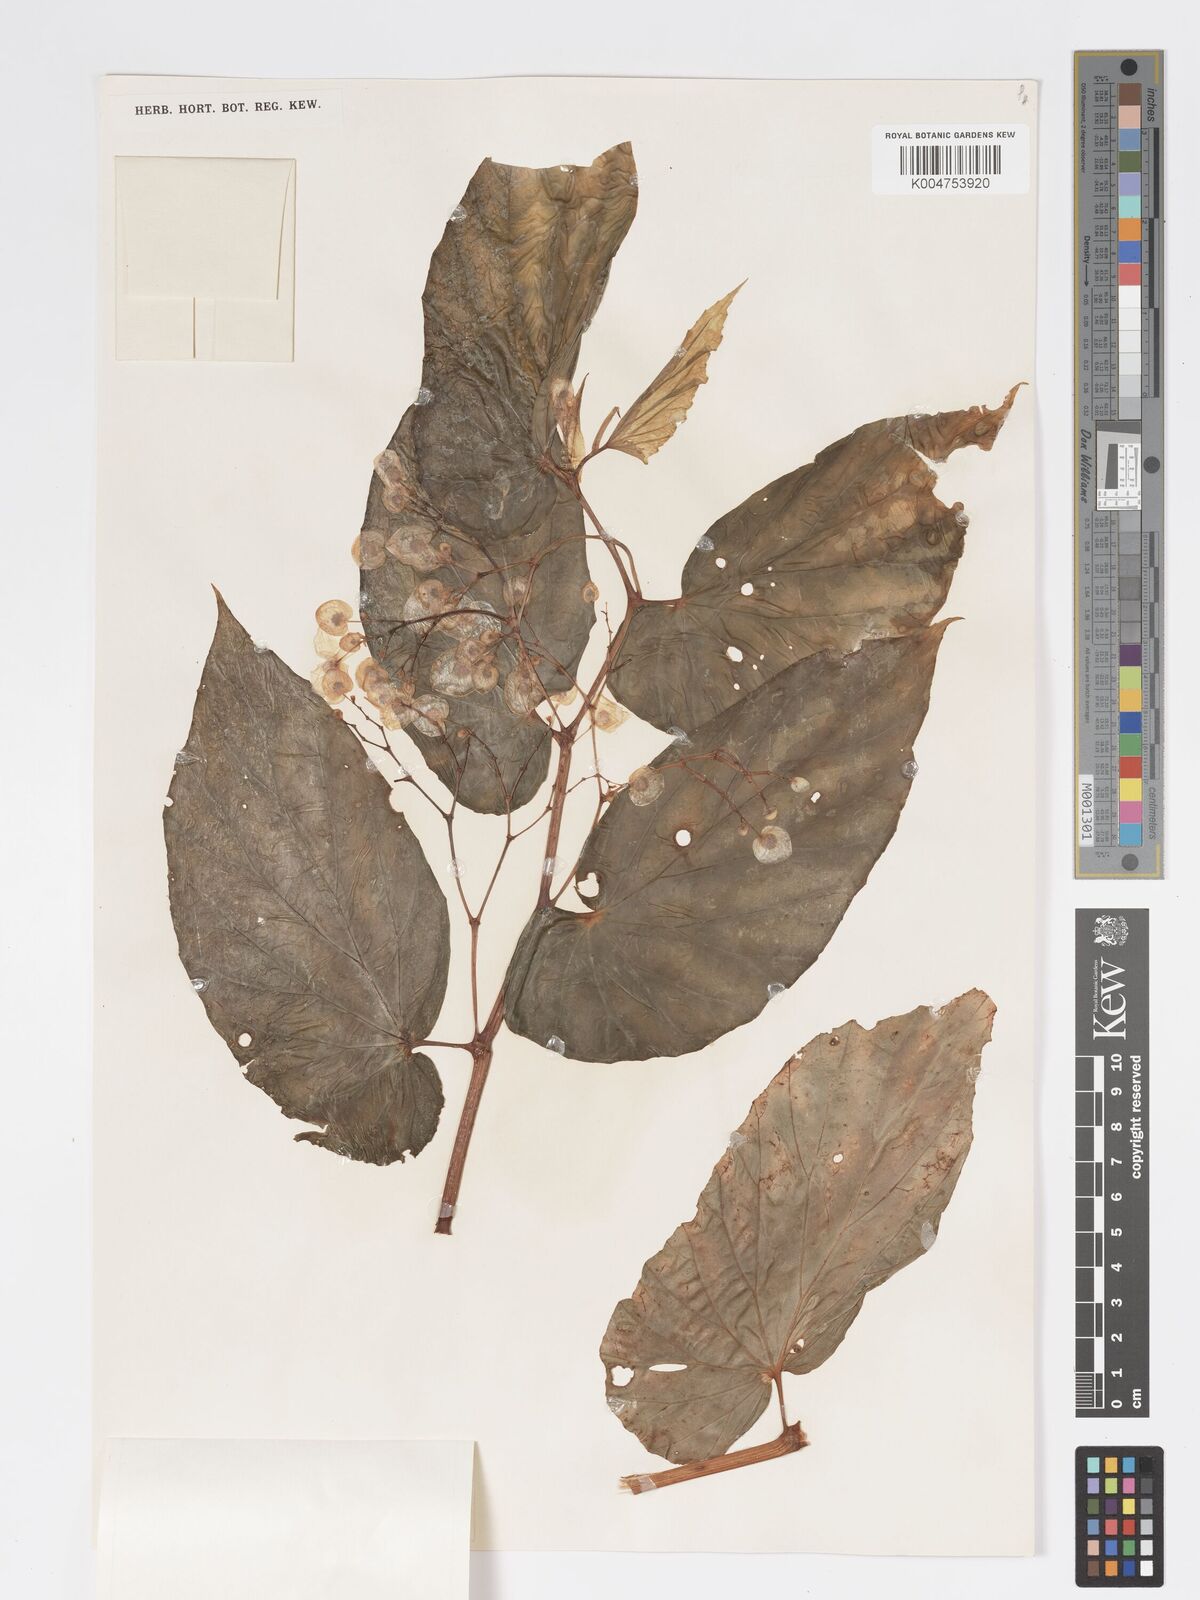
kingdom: Plantae
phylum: Tracheophyta
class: Magnoliopsida
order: Cucurbitales
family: Begoniaceae
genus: Begonia
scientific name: Begonia lauterbachii
